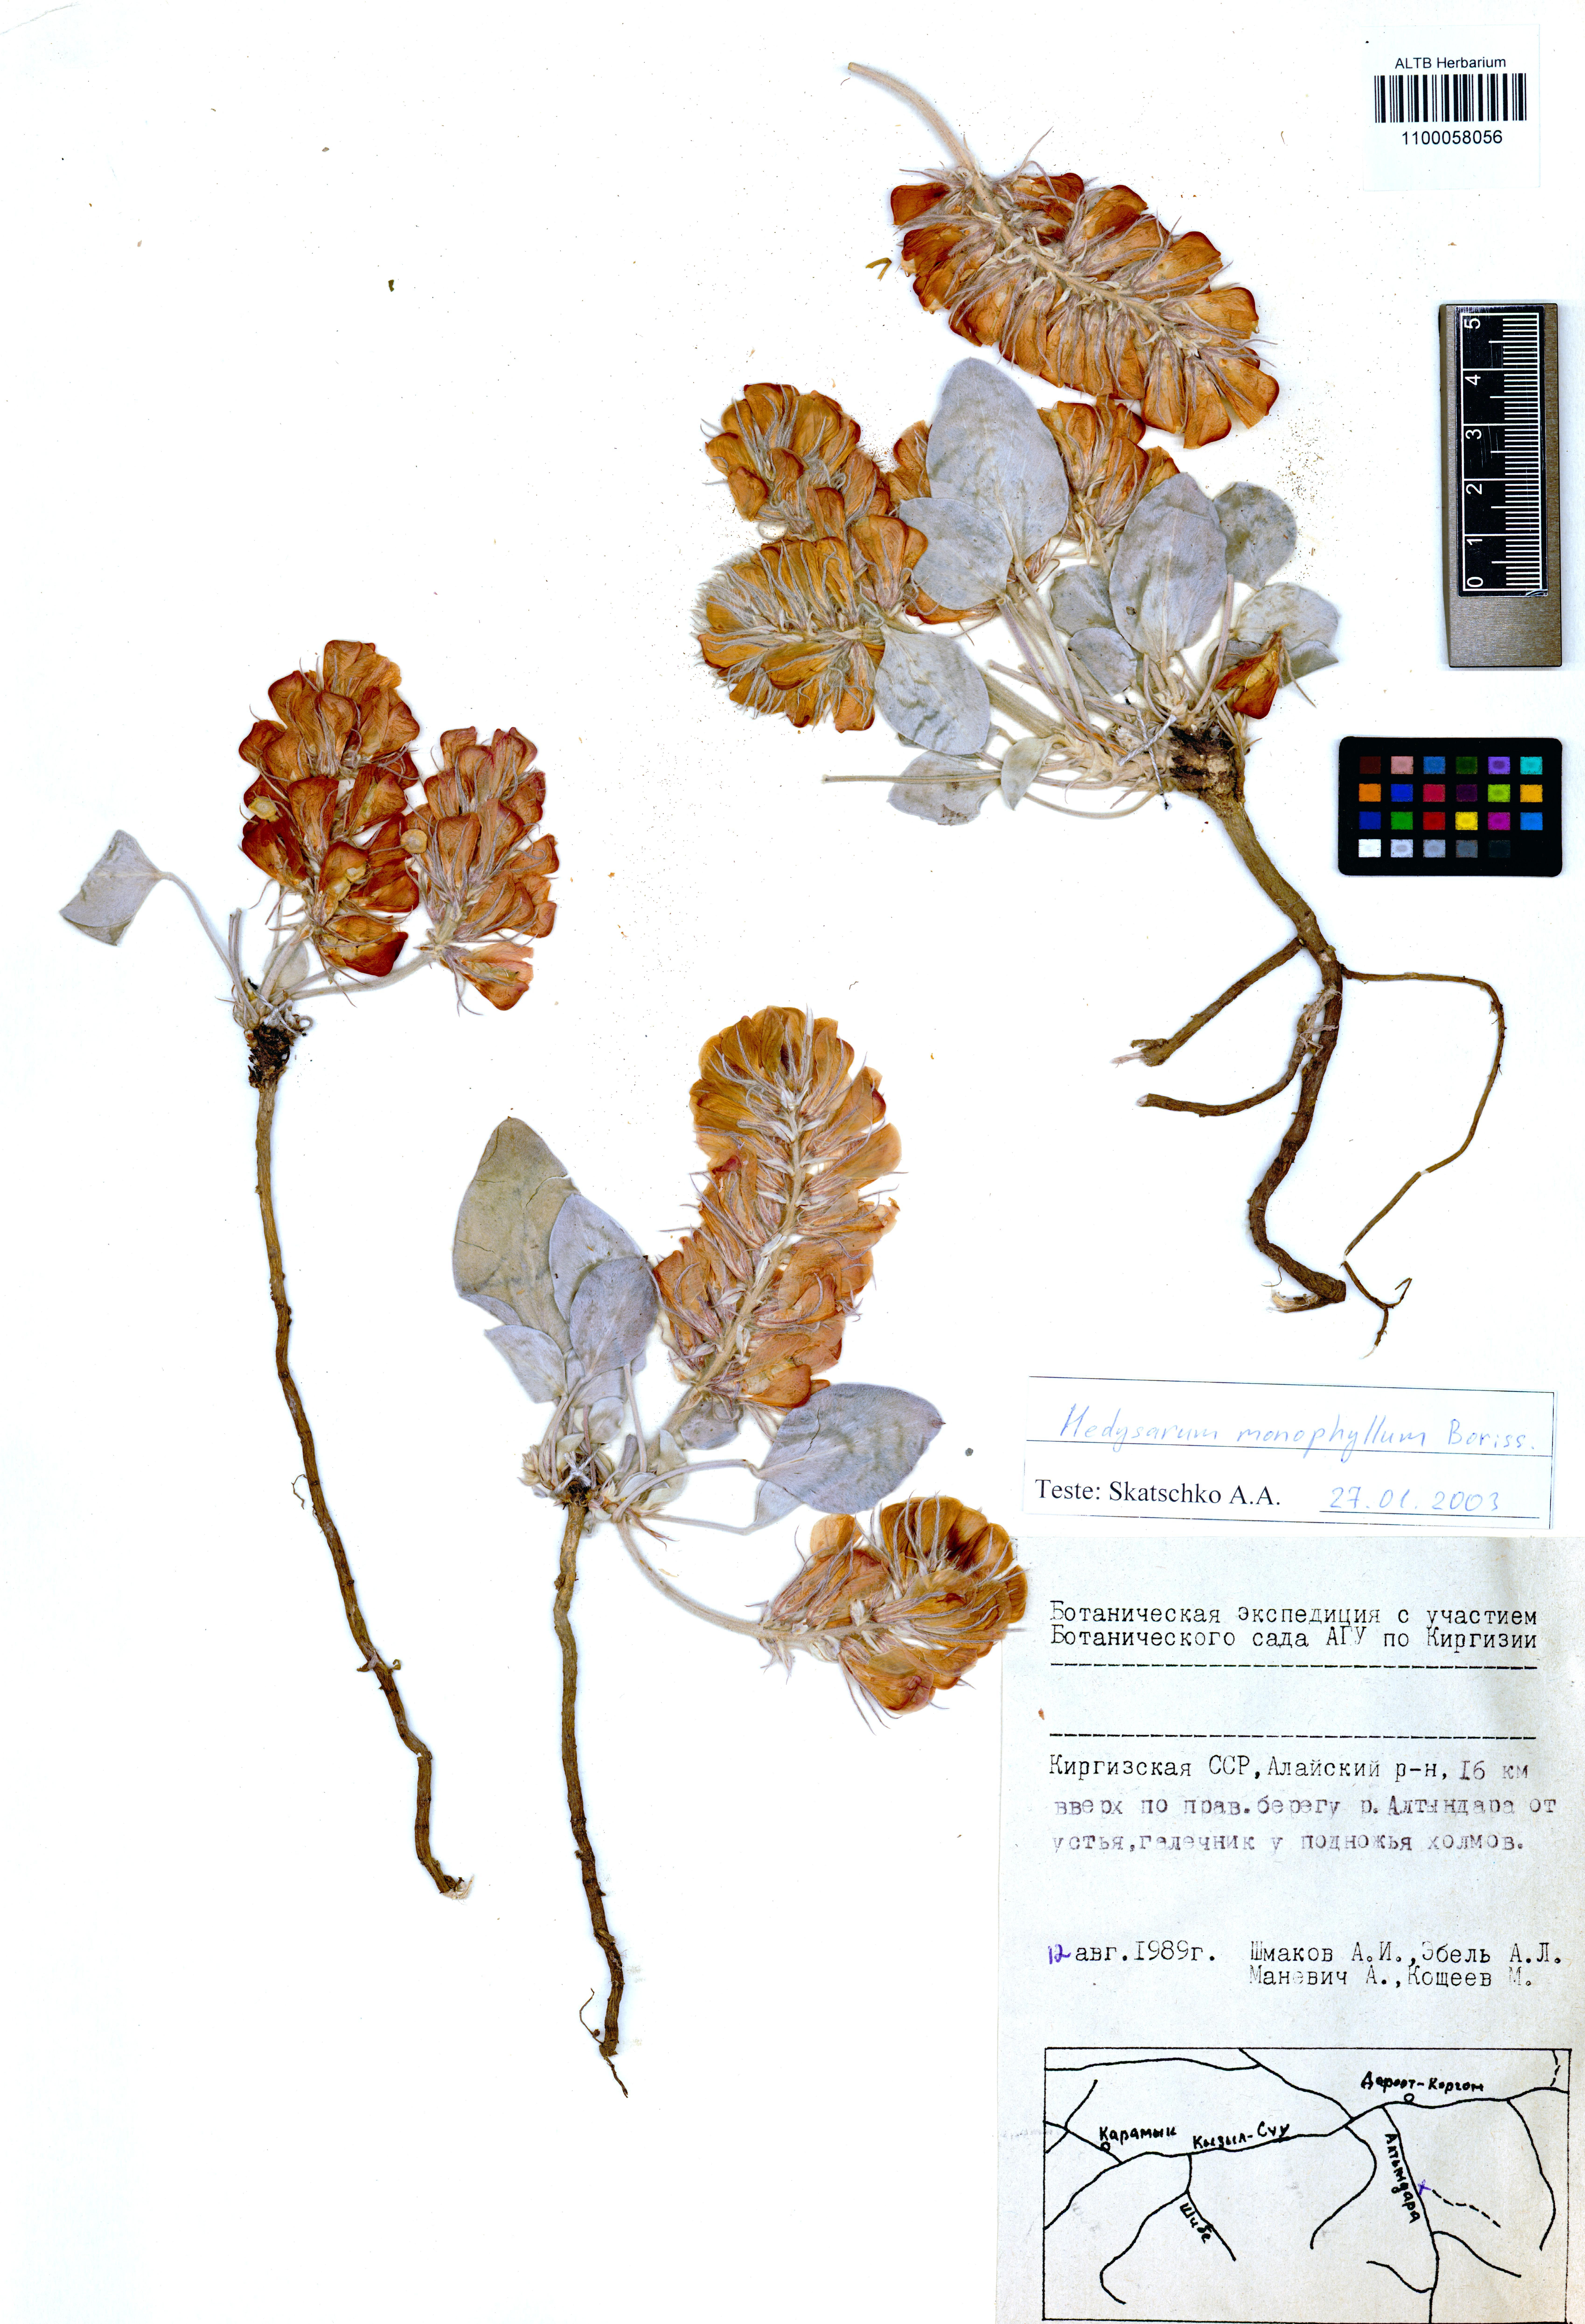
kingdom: Plantae
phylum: Tracheophyta
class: Magnoliopsida
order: Fabales
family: Fabaceae
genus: Hedysarum
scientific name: Hedysarum monophyllum
